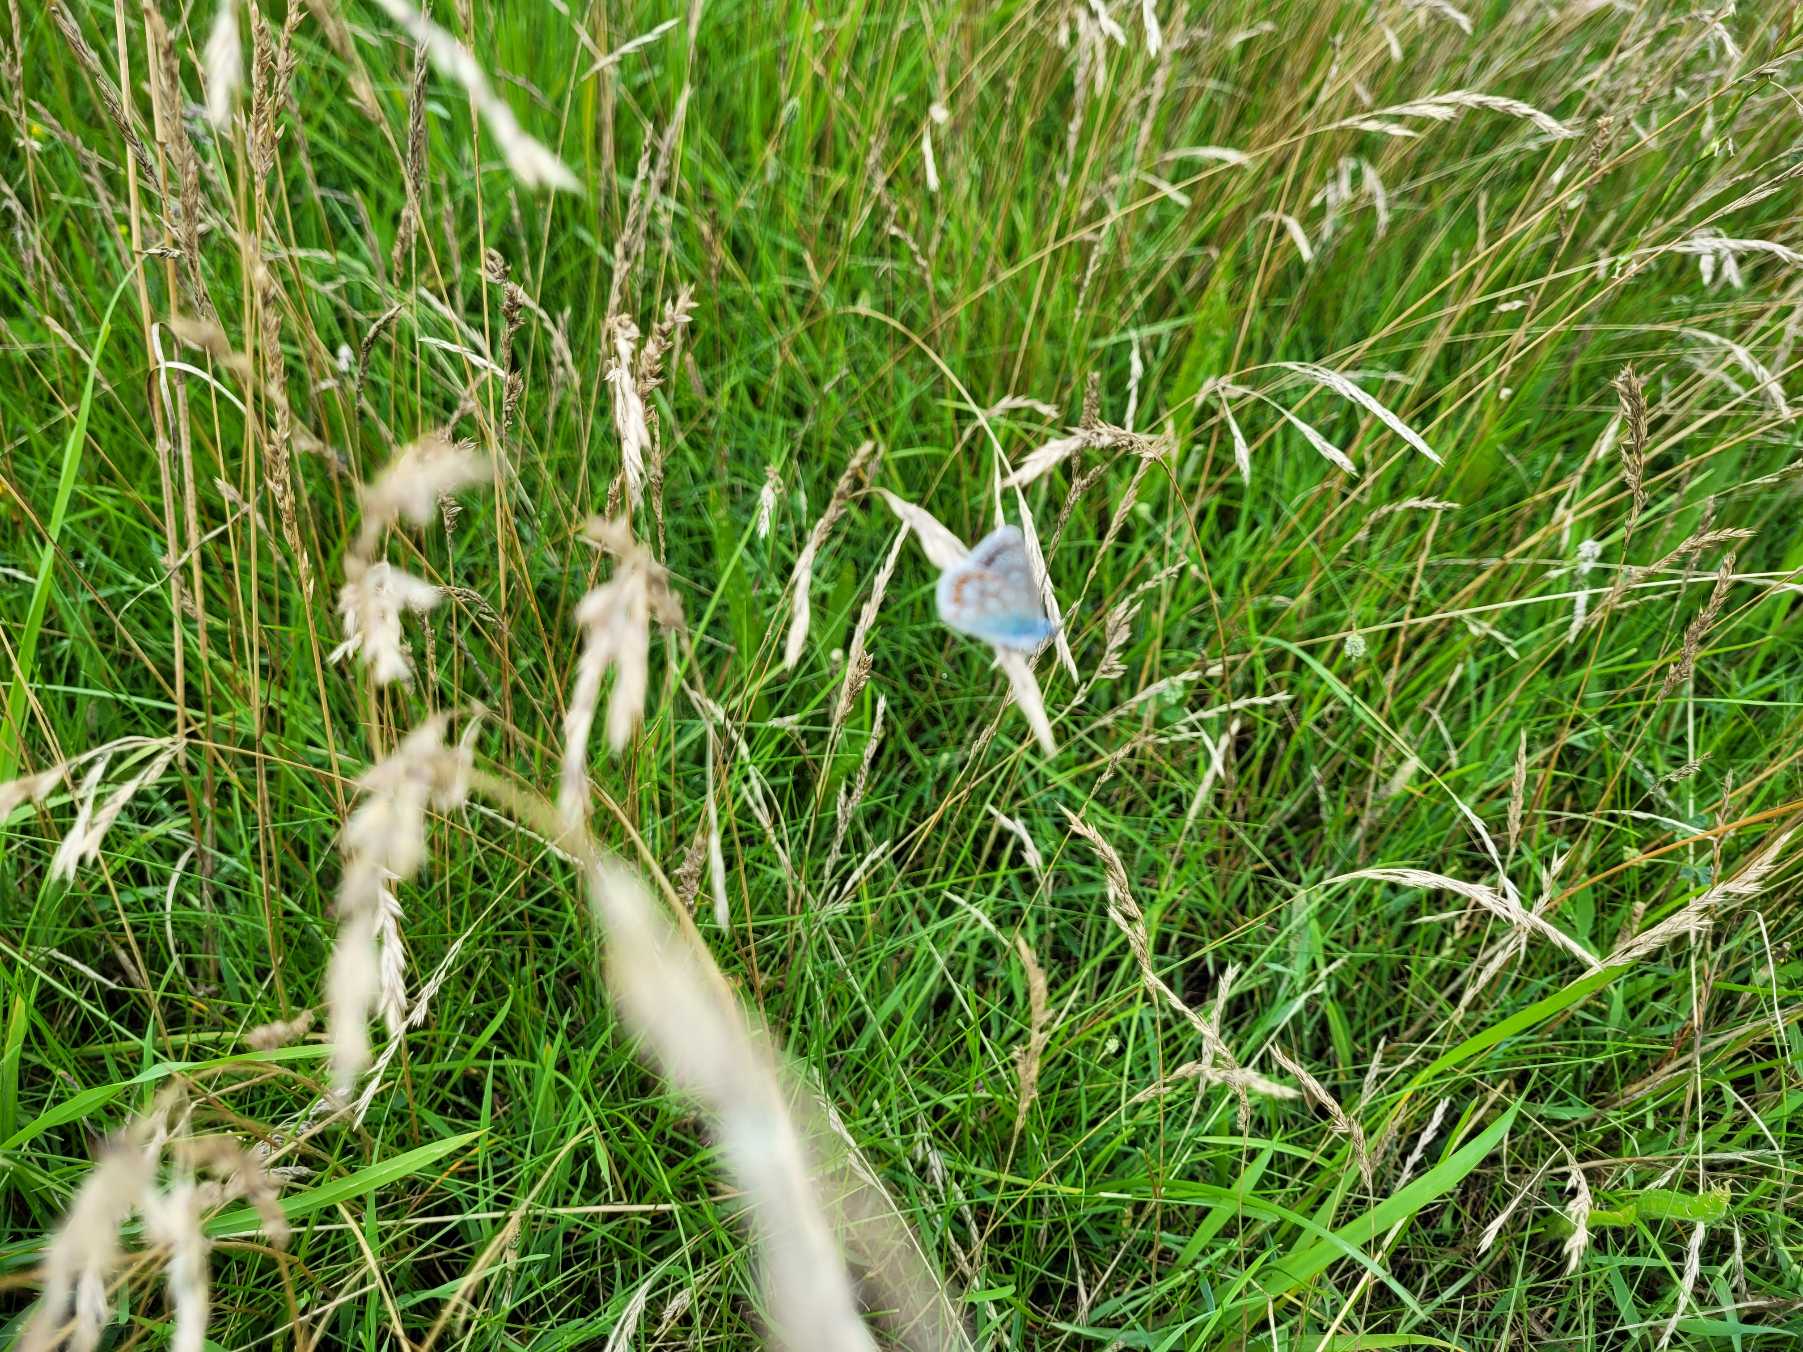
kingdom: Animalia
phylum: Arthropoda
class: Insecta
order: Lepidoptera
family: Lycaenidae
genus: Polyommatus
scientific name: Polyommatus icarus
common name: Almindelig blåfugl
